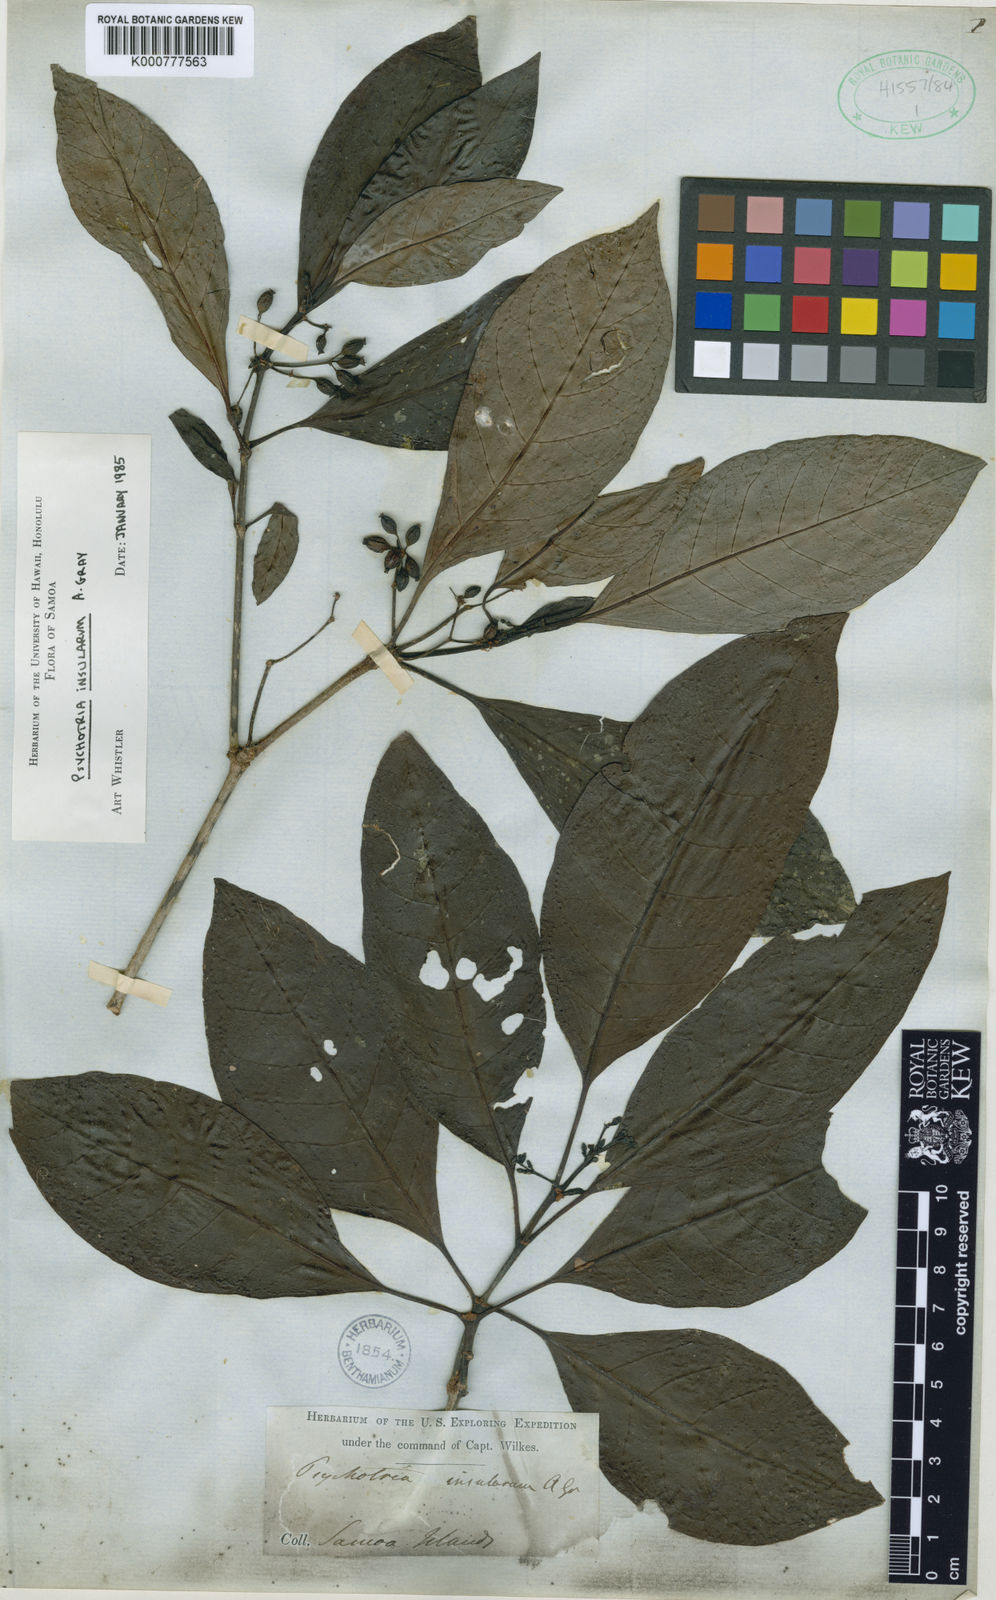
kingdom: Plantae
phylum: Tracheophyta
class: Magnoliopsida
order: Gentianales
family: Rubiaceae
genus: Psychotria
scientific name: Psychotria insularum
